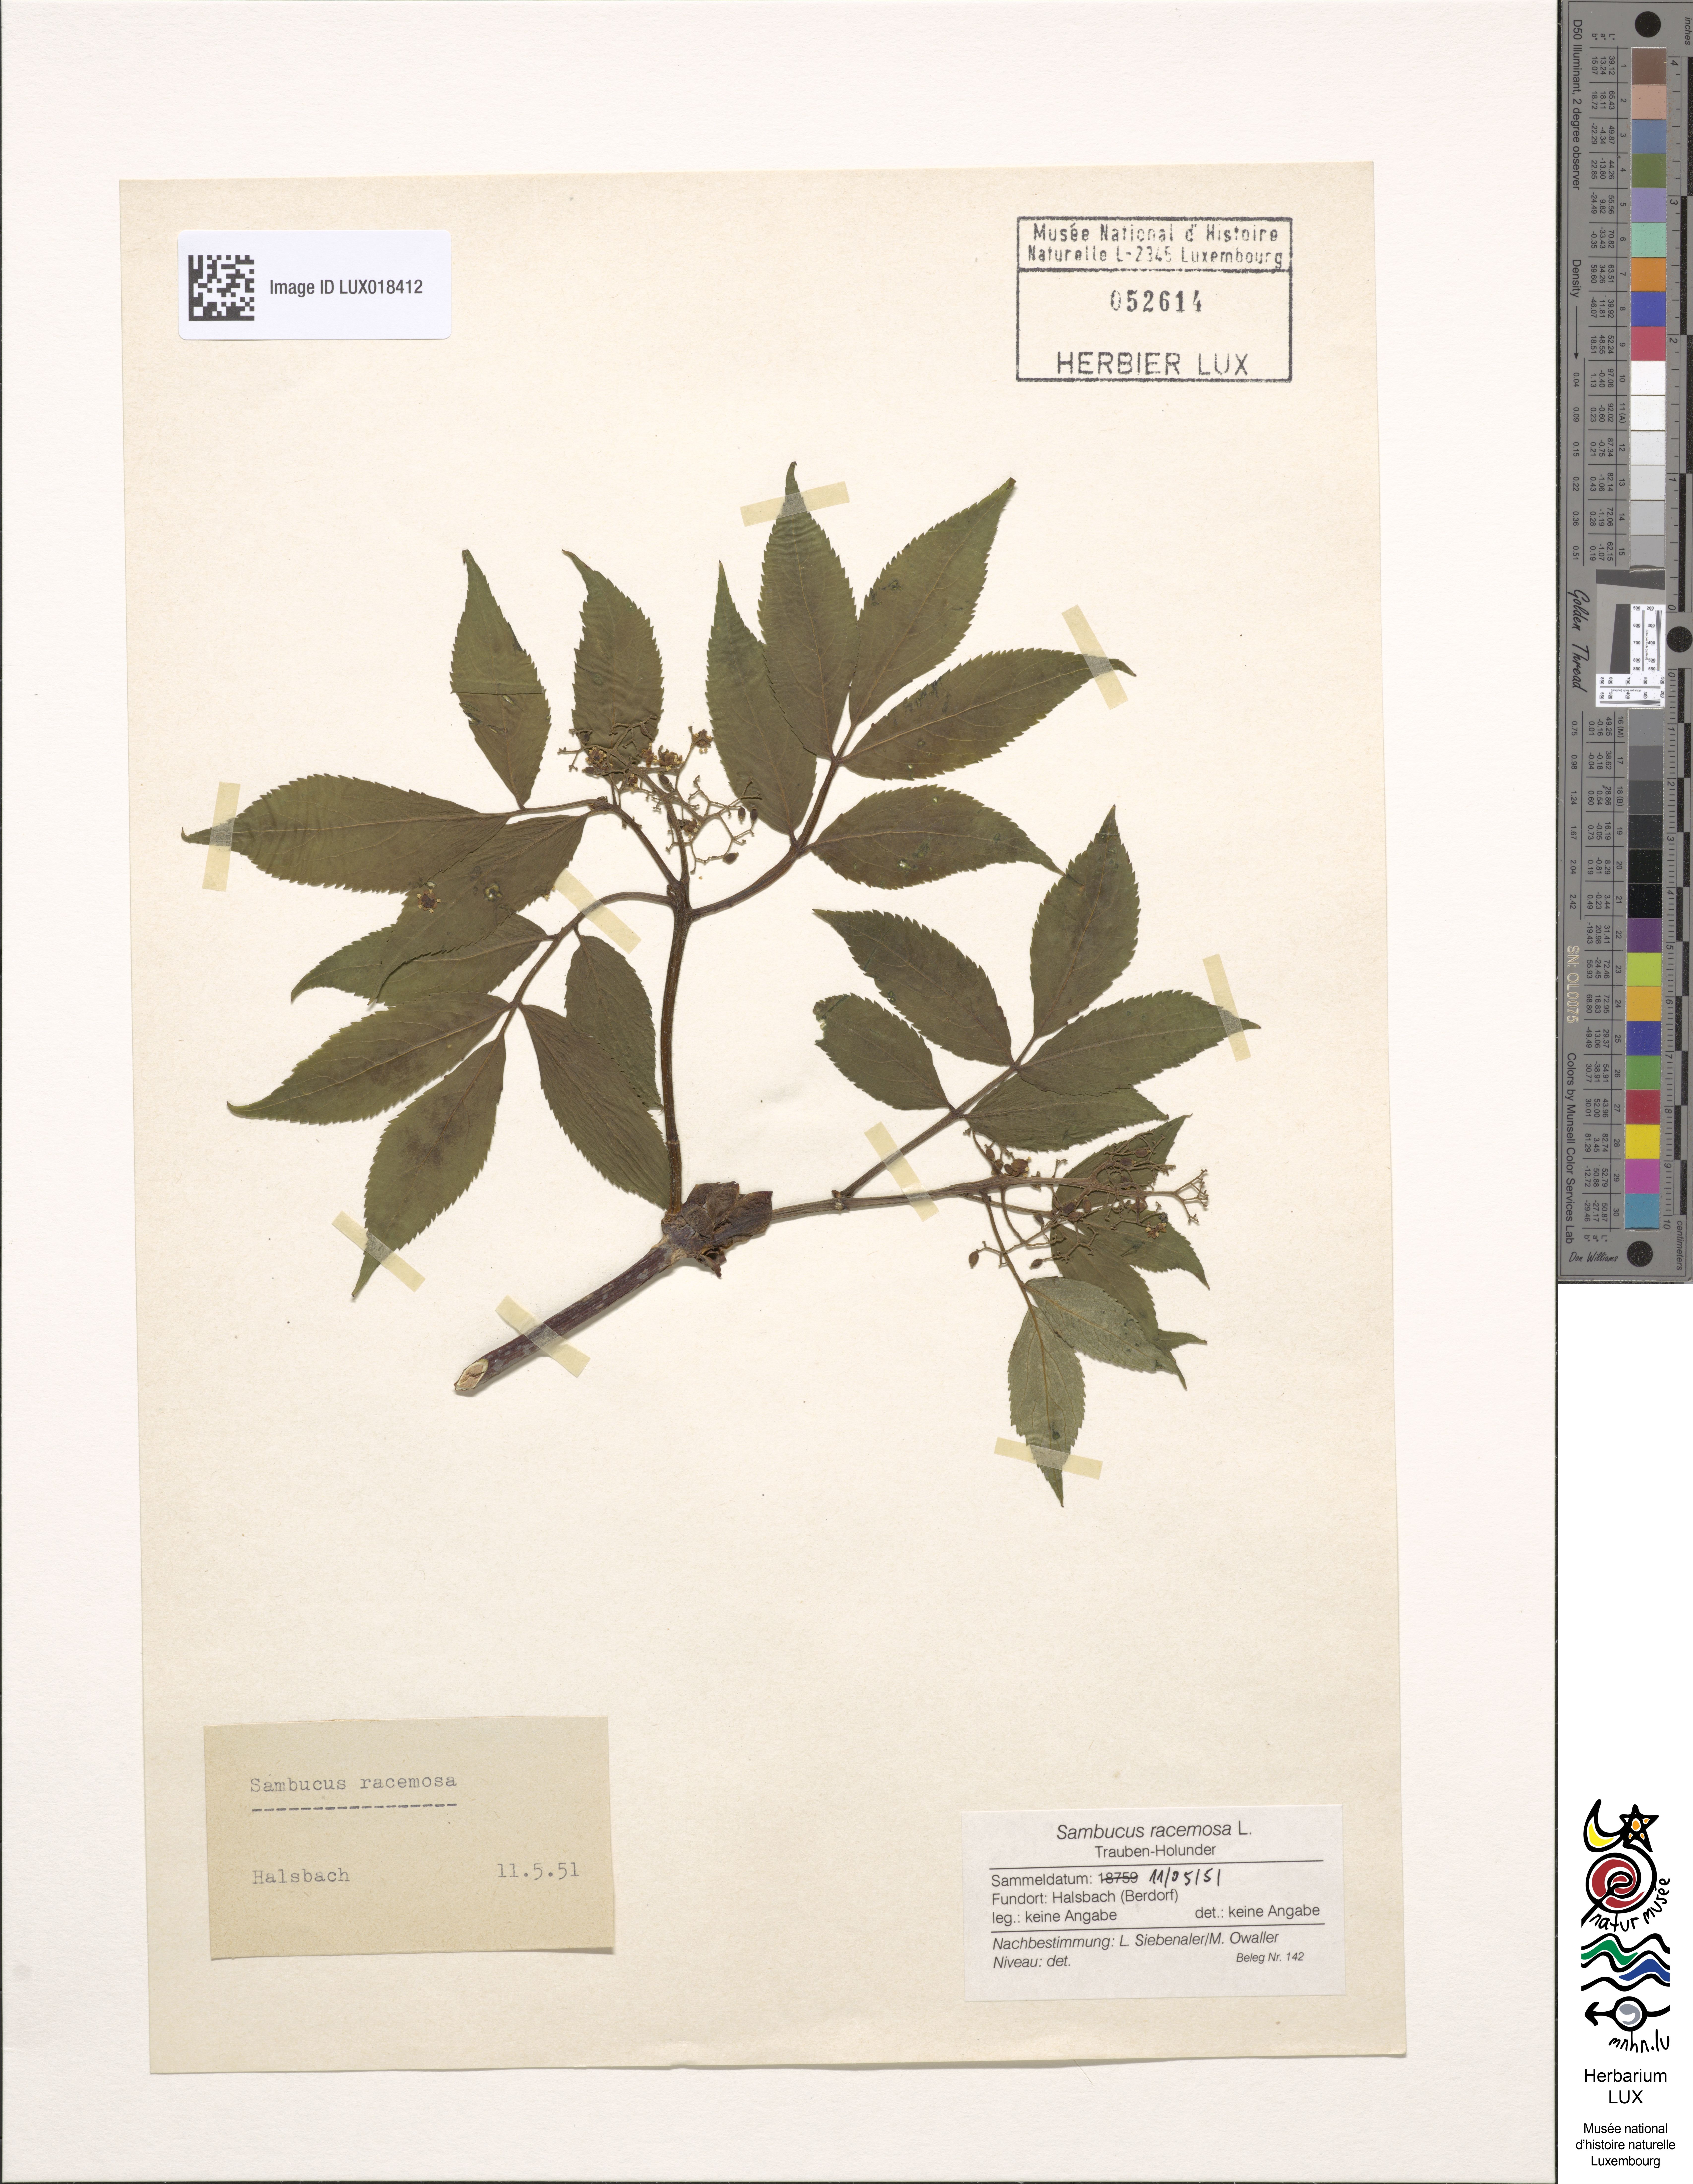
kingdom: Plantae
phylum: Tracheophyta
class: Magnoliopsida
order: Dipsacales
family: Viburnaceae
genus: Sambucus
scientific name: Sambucus racemosa
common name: Red-berried elder
